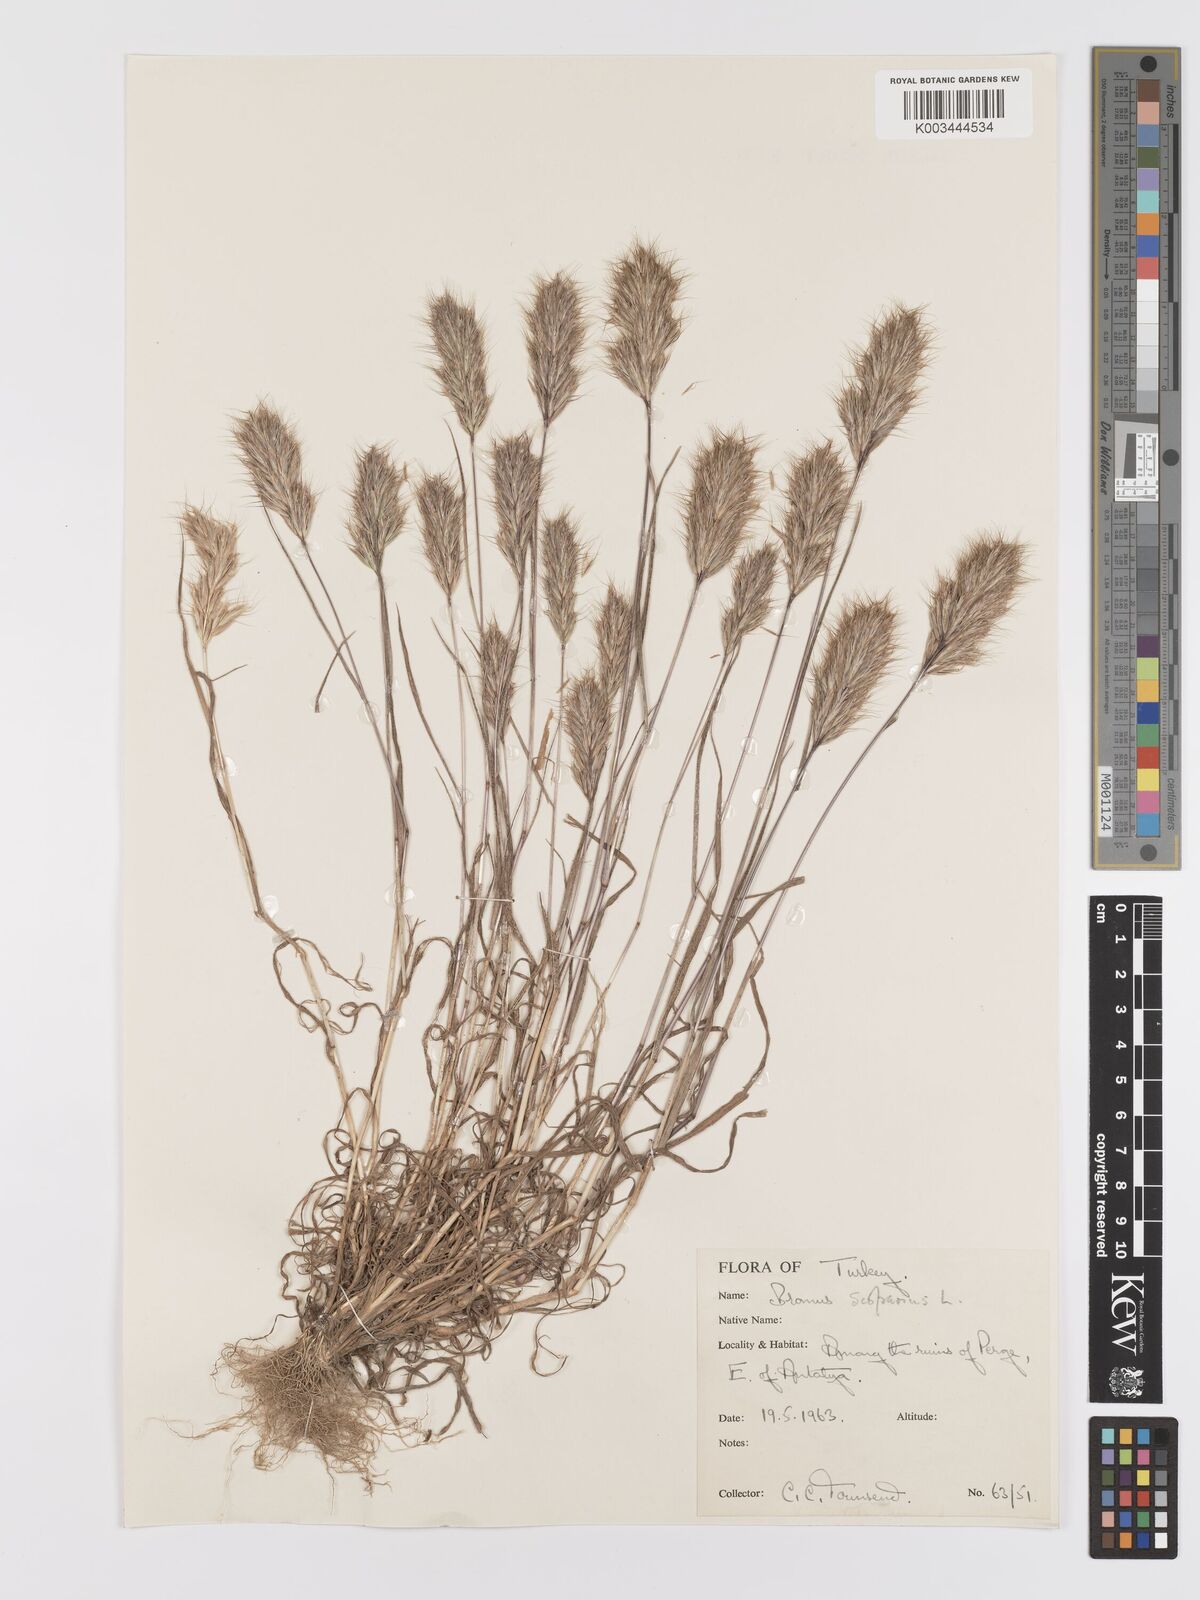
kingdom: Plantae
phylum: Tracheophyta
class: Liliopsida
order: Poales
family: Poaceae
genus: Bromus
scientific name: Bromus scoparius
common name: Broom brome
